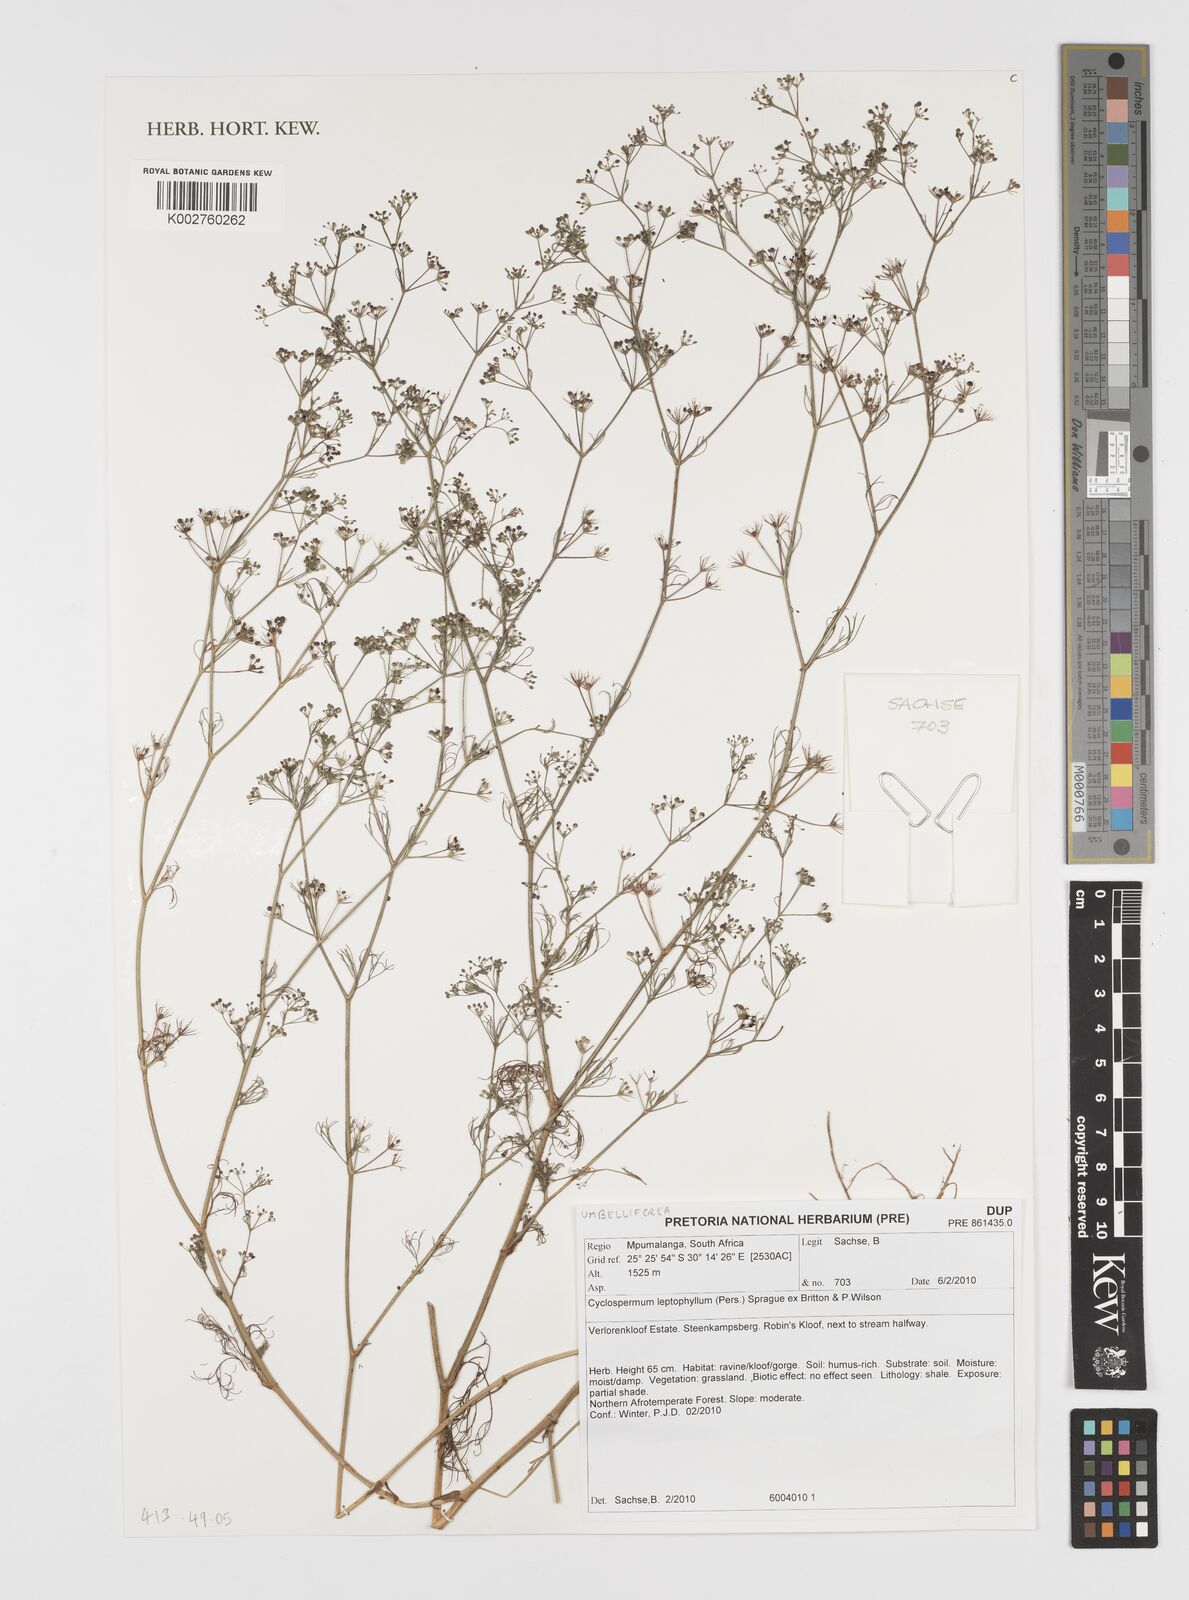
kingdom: Plantae
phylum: Tracheophyta
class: Magnoliopsida
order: Apiales
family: Apiaceae
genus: Cyclospermum
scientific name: Cyclospermum leptophyllum
